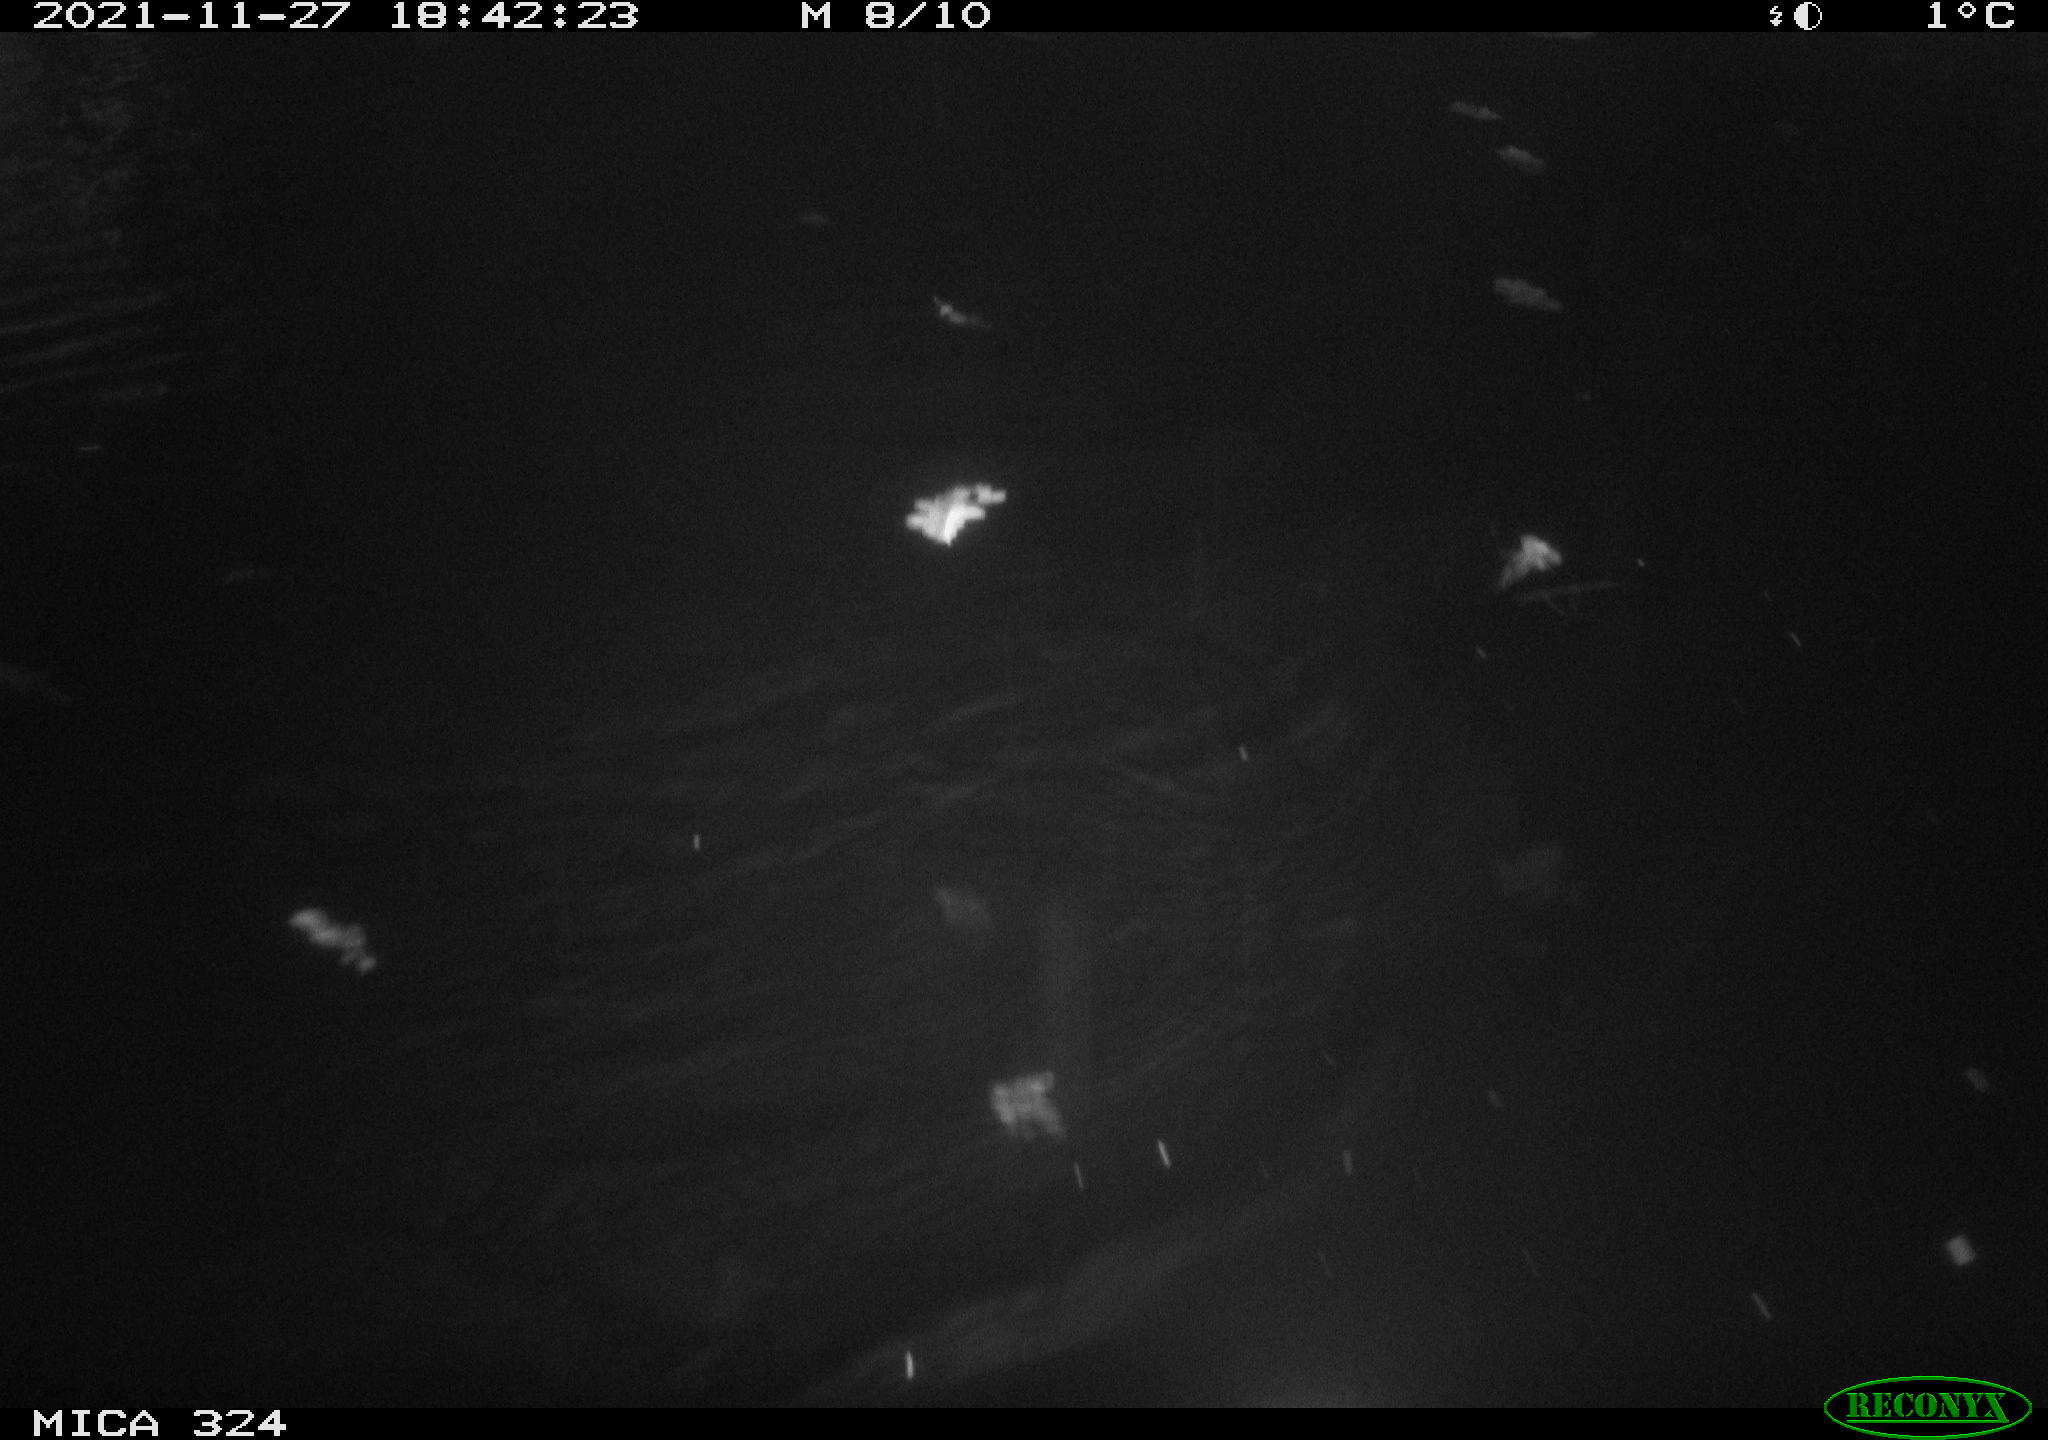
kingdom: Animalia
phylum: Chordata
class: Mammalia
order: Rodentia
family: Cricetidae
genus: Ondatra
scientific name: Ondatra zibethicus
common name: Muskrat
